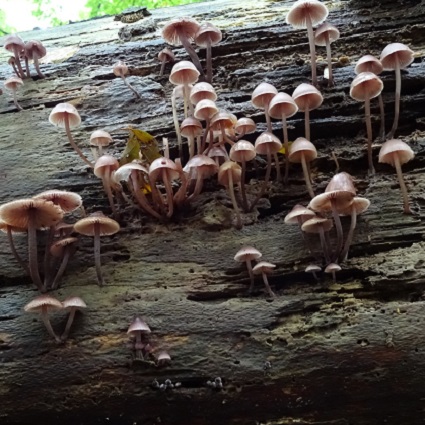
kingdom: Fungi
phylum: Basidiomycota
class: Agaricomycetes
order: Agaricales
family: Mycenaceae
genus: Mycena
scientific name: Mycena haematopus
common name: blødende huesvamp
